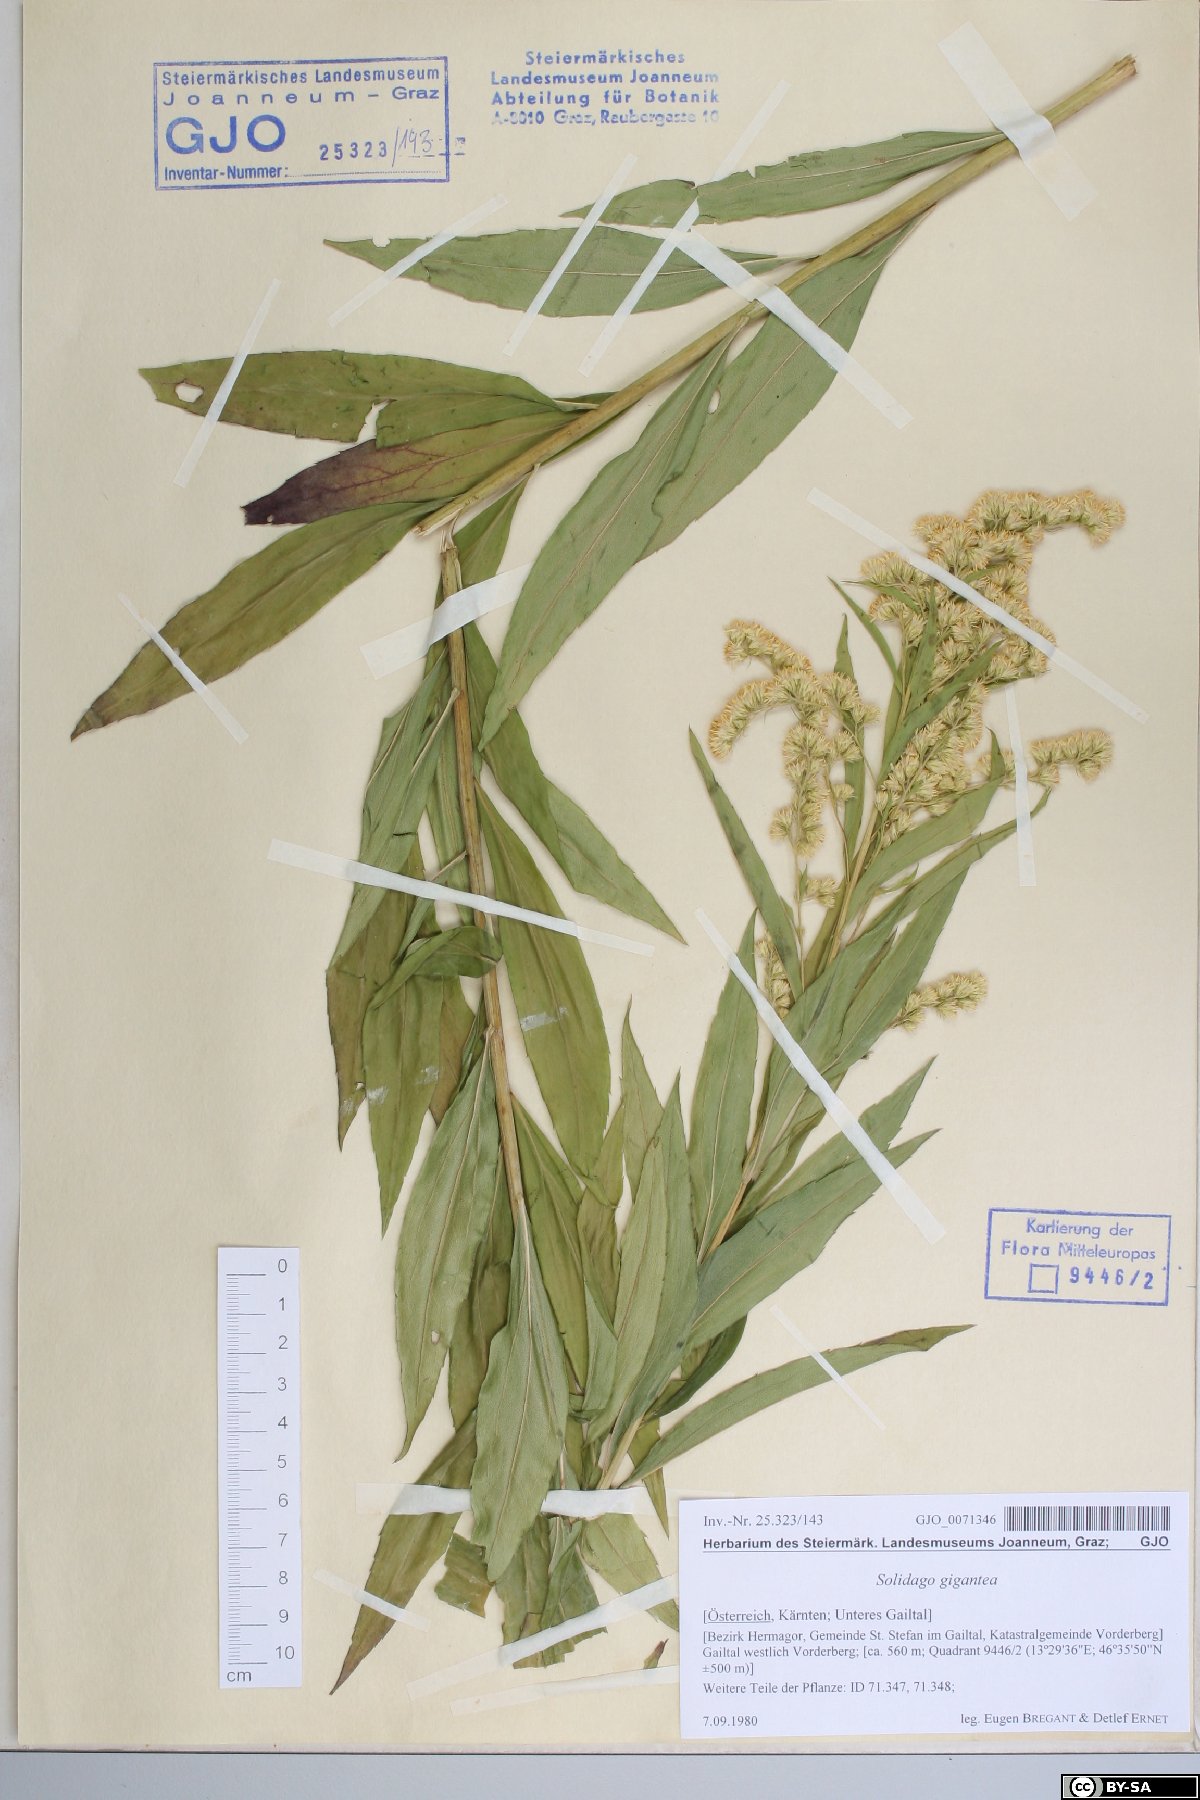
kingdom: Plantae
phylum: Tracheophyta
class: Magnoliopsida
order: Asterales
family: Asteraceae
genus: Solidago
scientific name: Solidago gigantea
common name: Giant goldenrod
